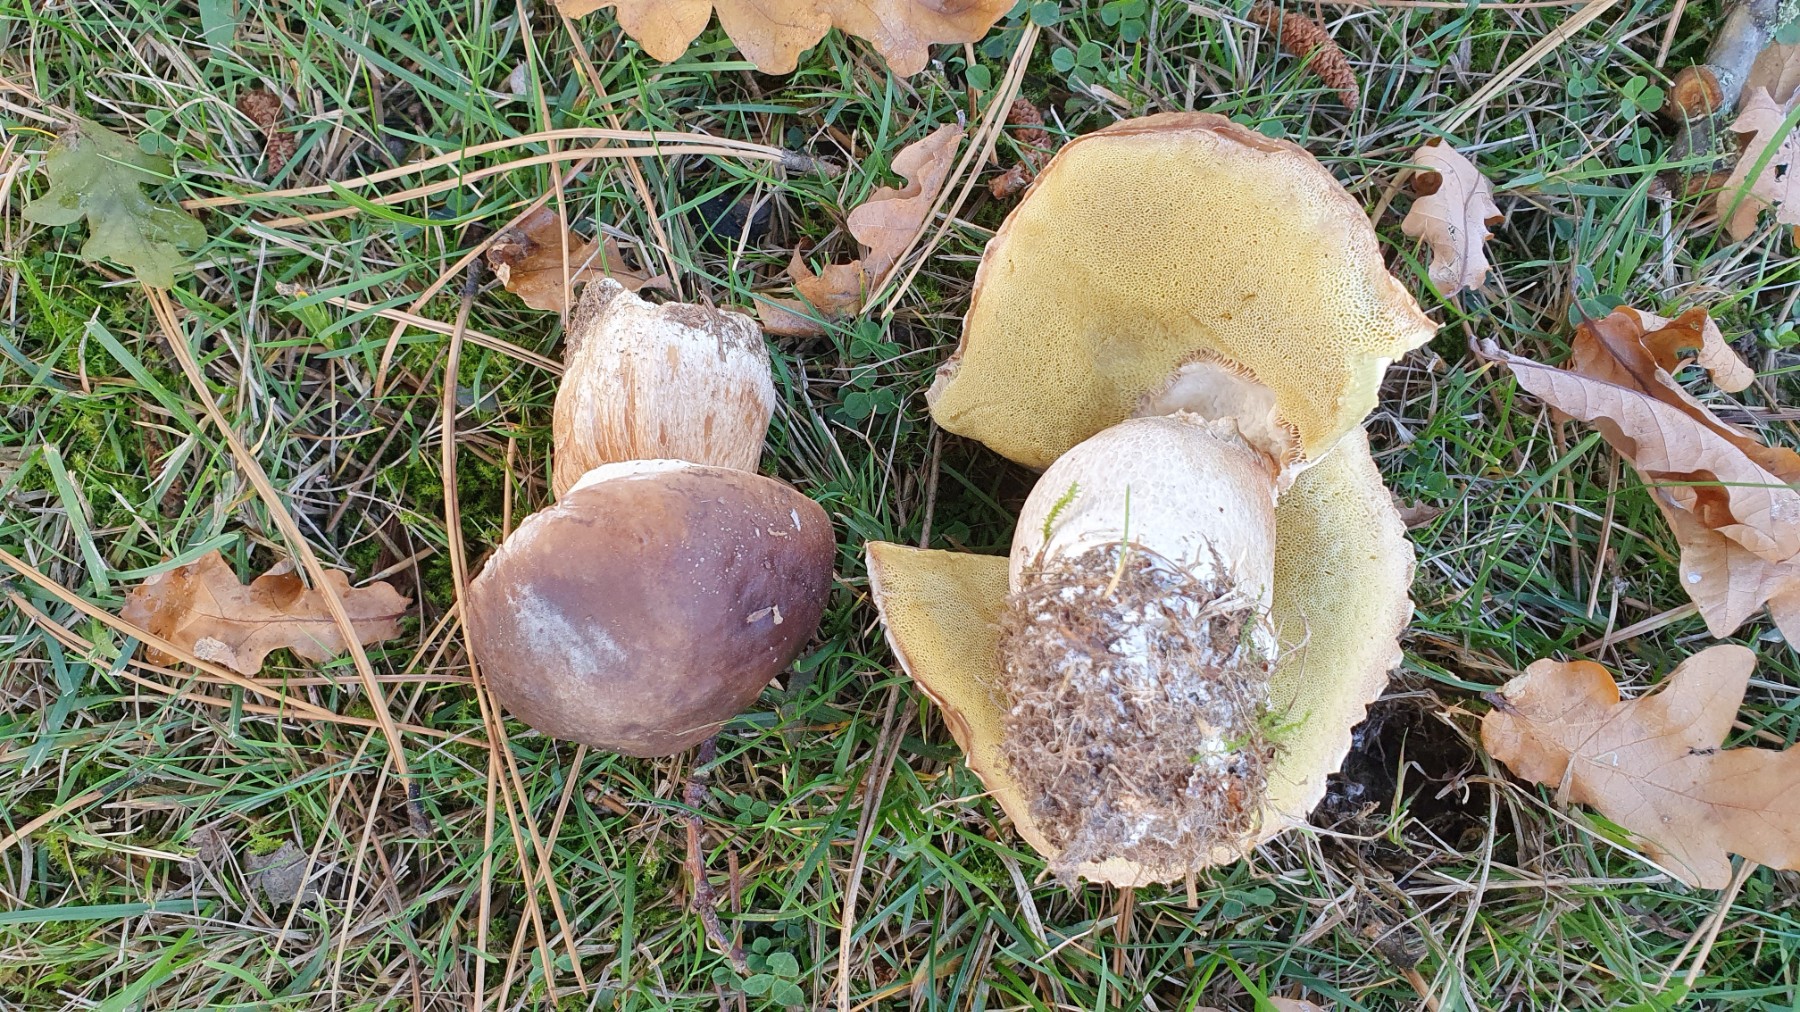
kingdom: Fungi
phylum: Basidiomycota
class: Agaricomycetes
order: Boletales
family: Boletaceae
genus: Boletus
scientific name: Boletus edulis
